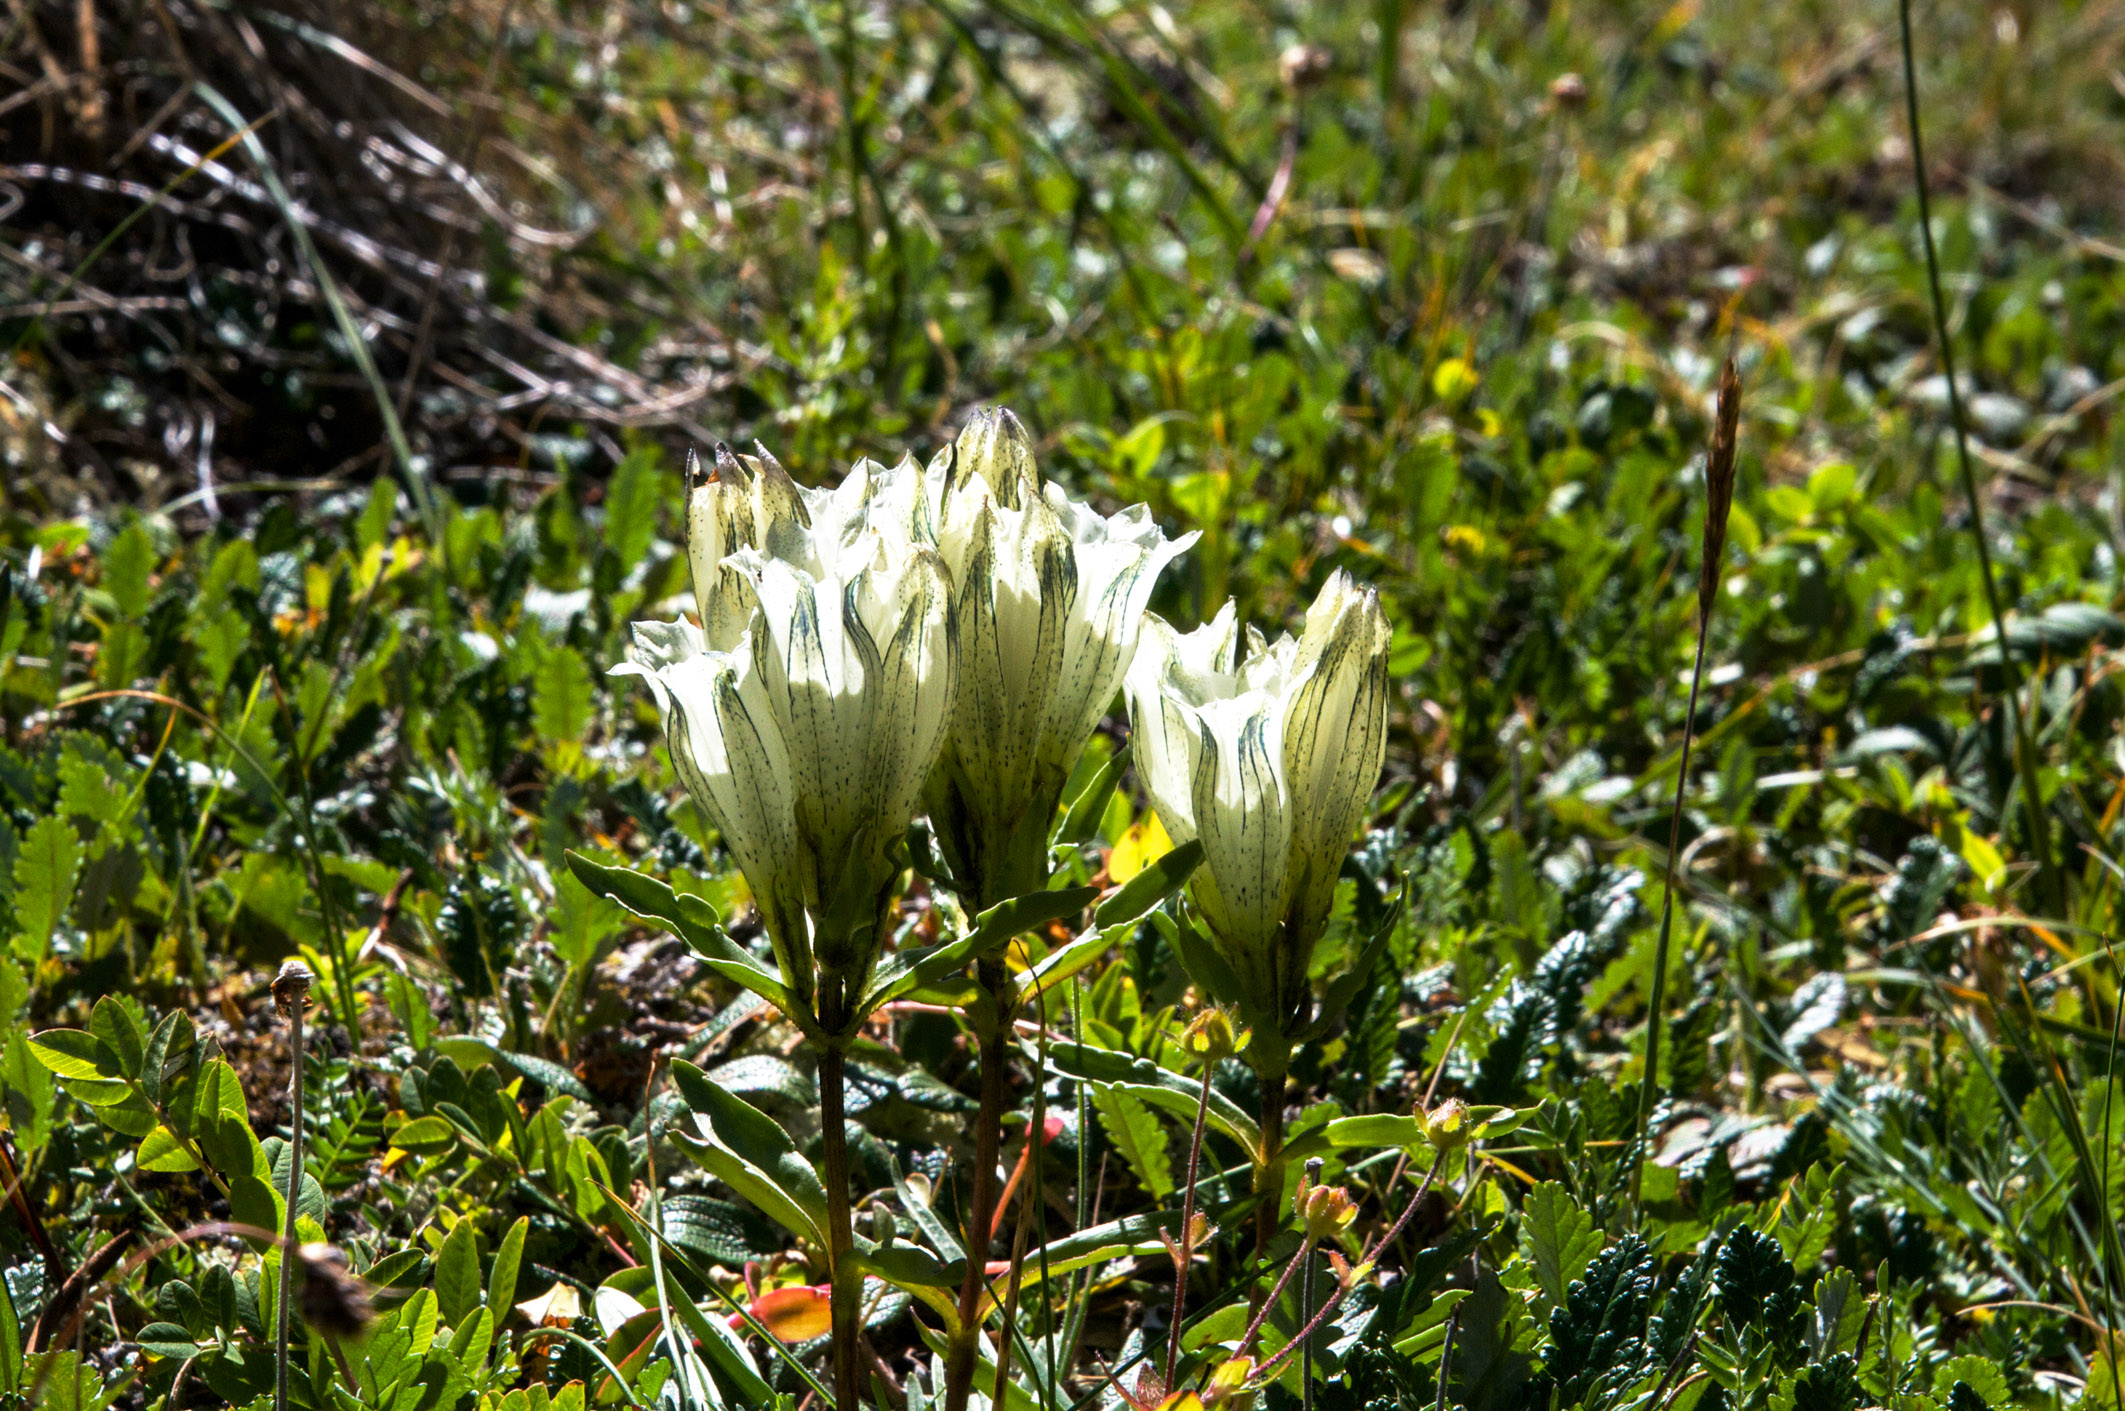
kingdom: Plantae
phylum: Tracheophyta
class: Magnoliopsida
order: Gentianales
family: Gentianaceae
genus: Gentiana
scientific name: Gentiana algida
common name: Arctic gentian
